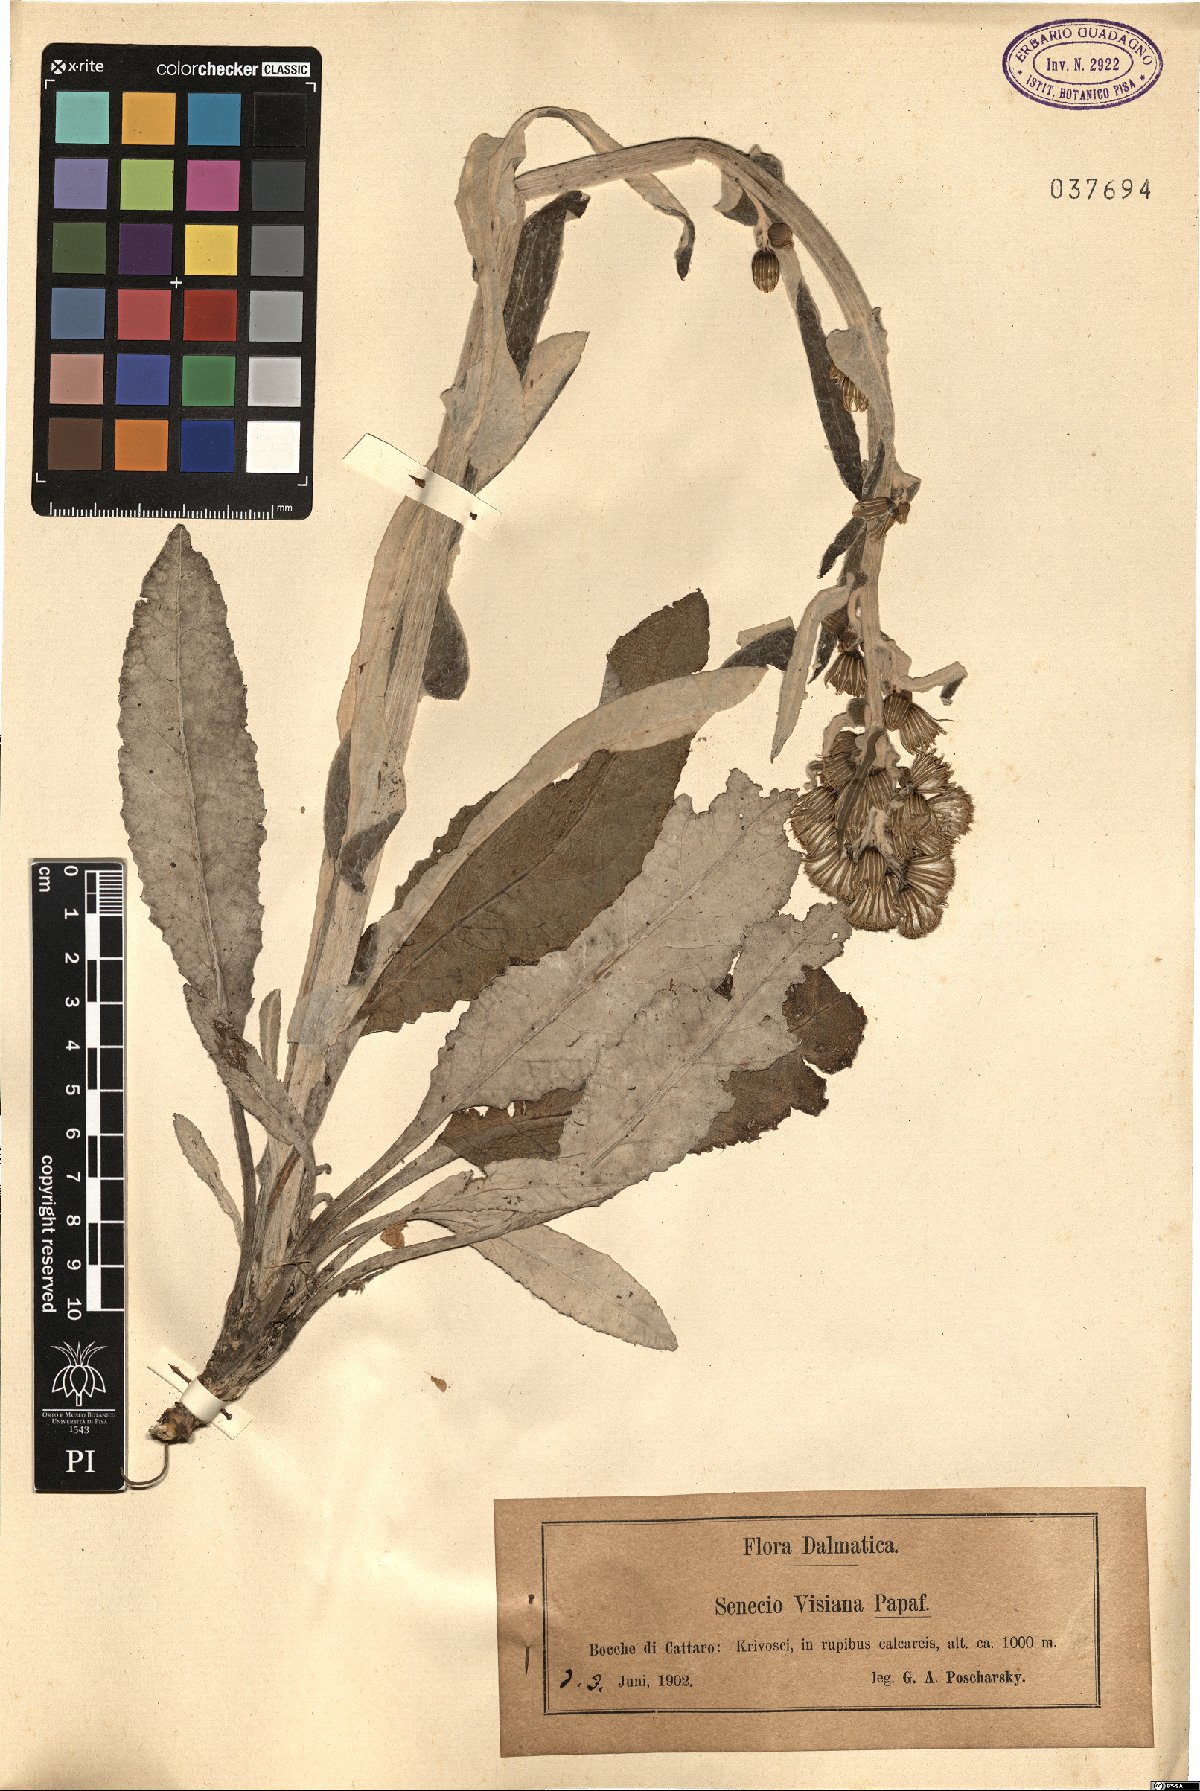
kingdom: Plantae
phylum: Tracheophyta
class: Magnoliopsida
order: Asterales
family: Asteraceae
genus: Senecio
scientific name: Senecio thapsoides
